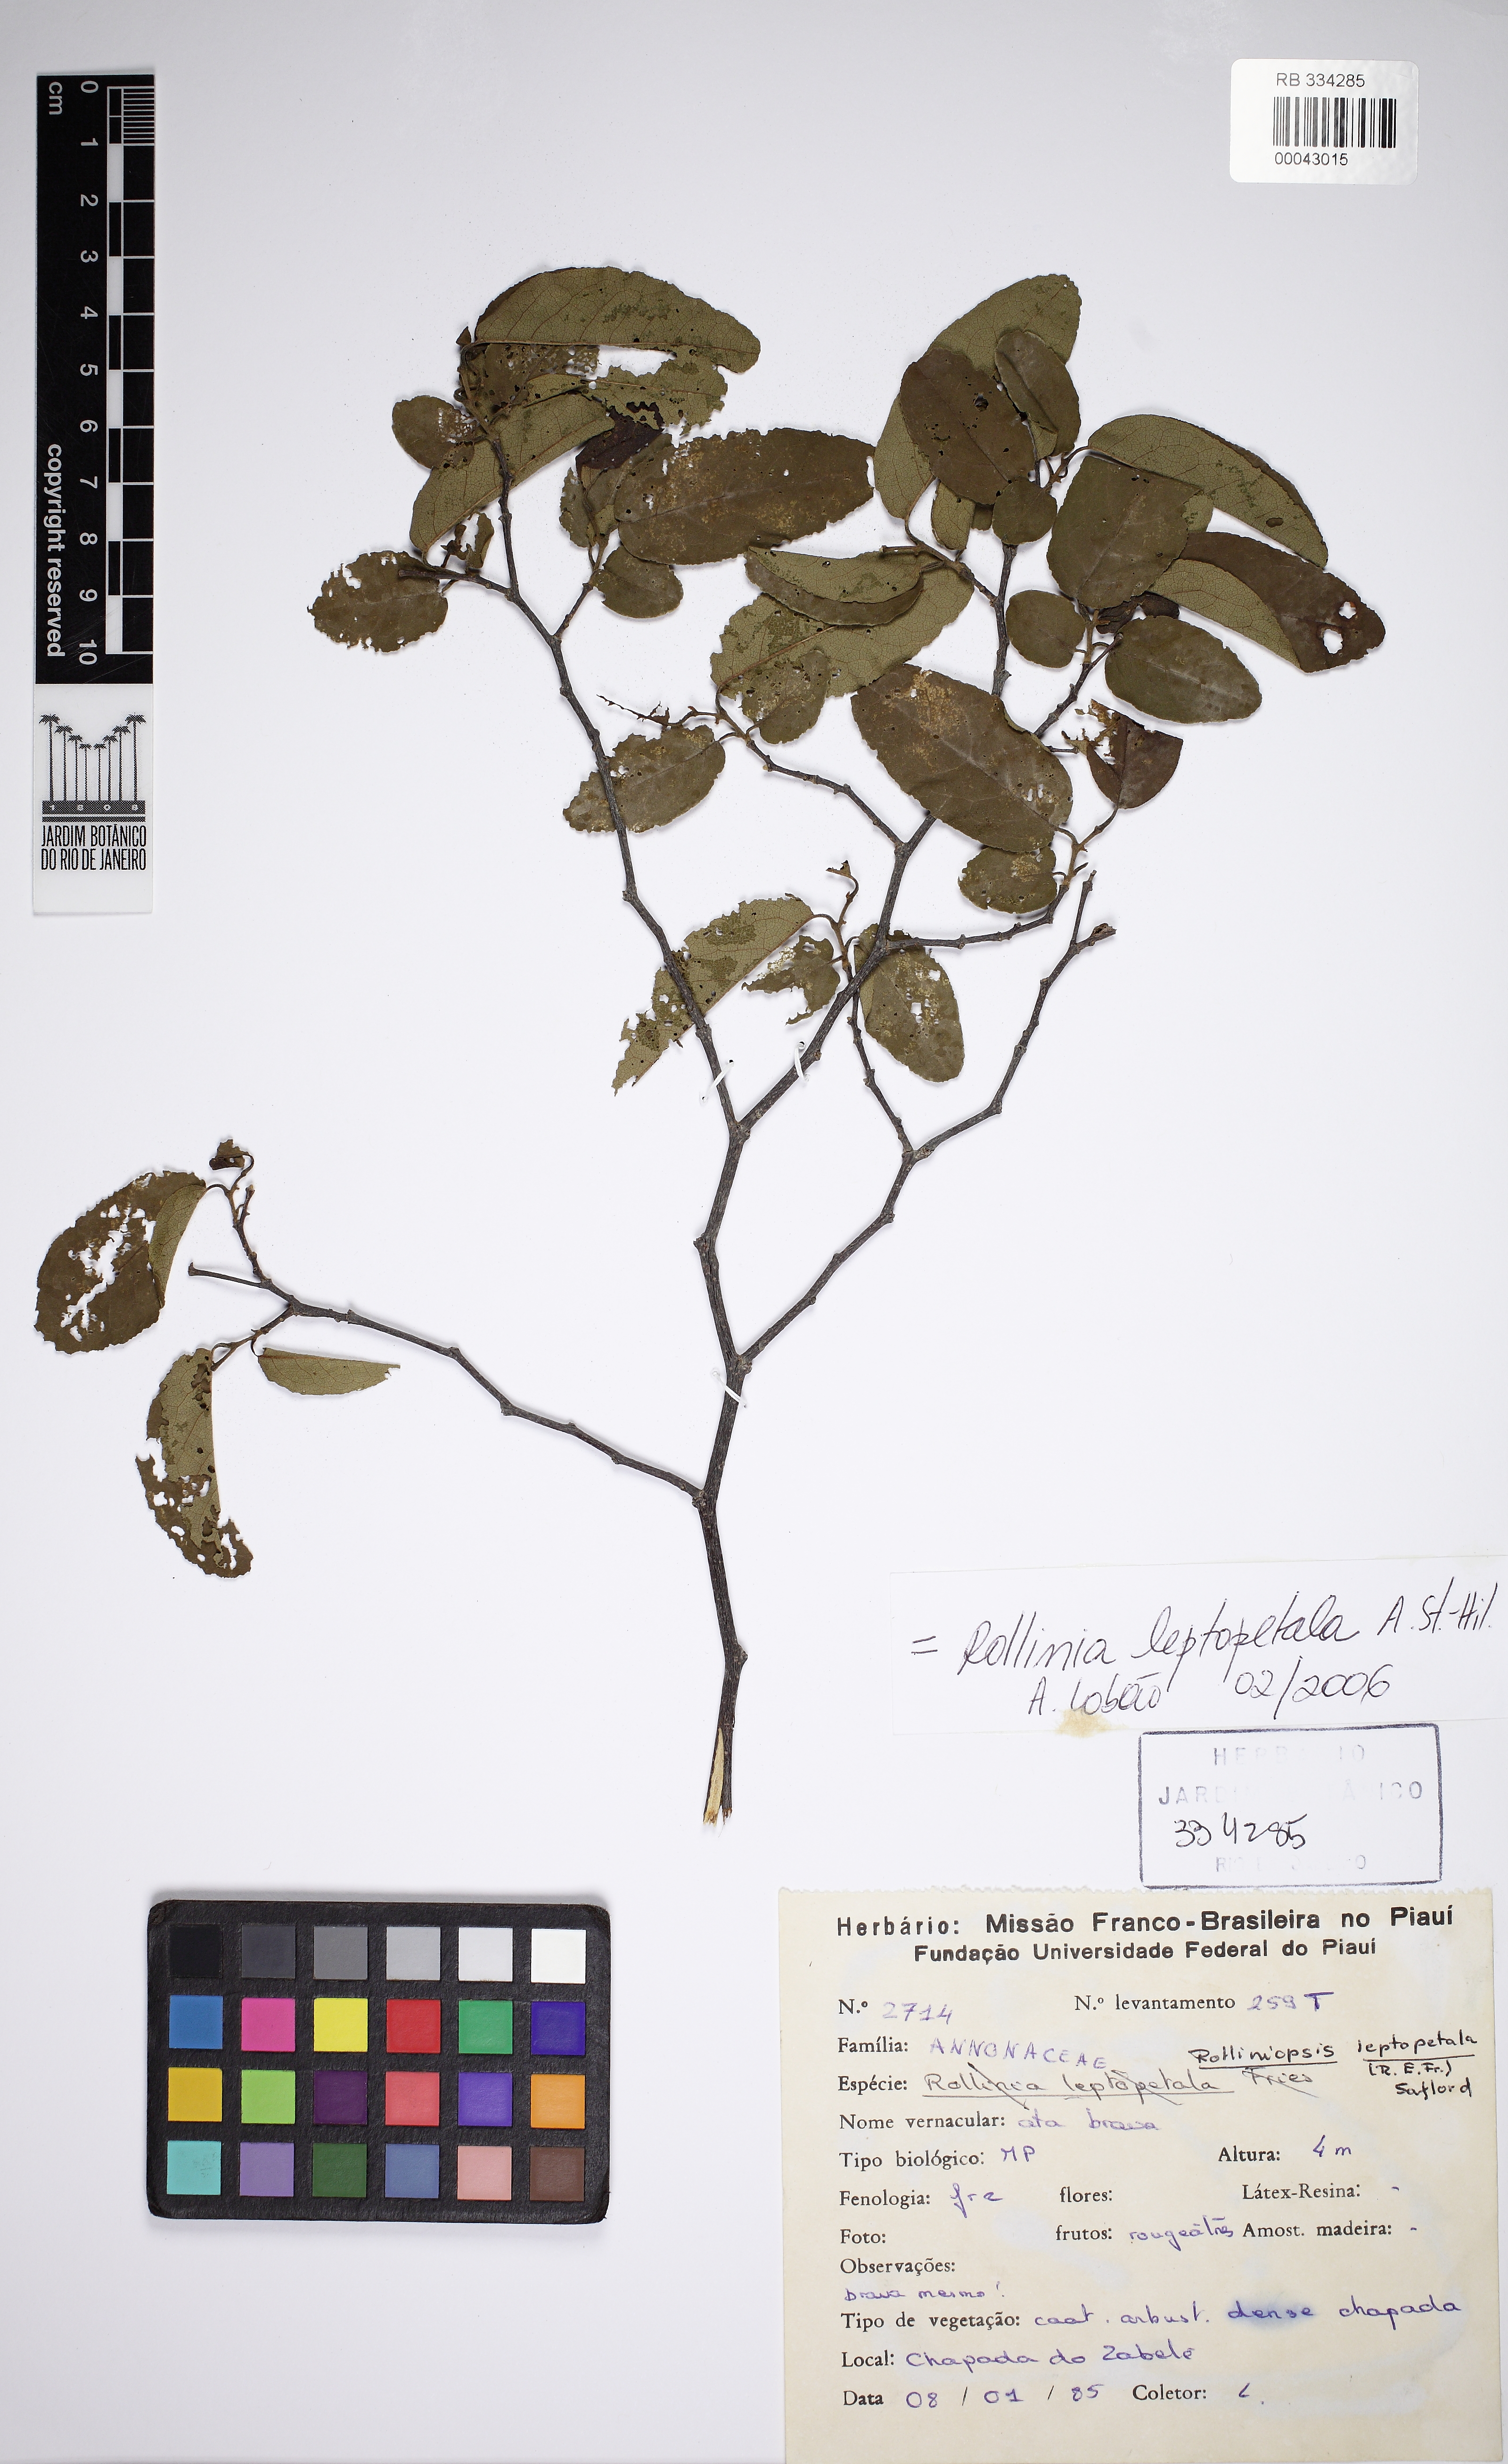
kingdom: Plantae
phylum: Tracheophyta
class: Magnoliopsida
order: Magnoliales
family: Annonaceae
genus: Annona
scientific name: Annona leptopetala
